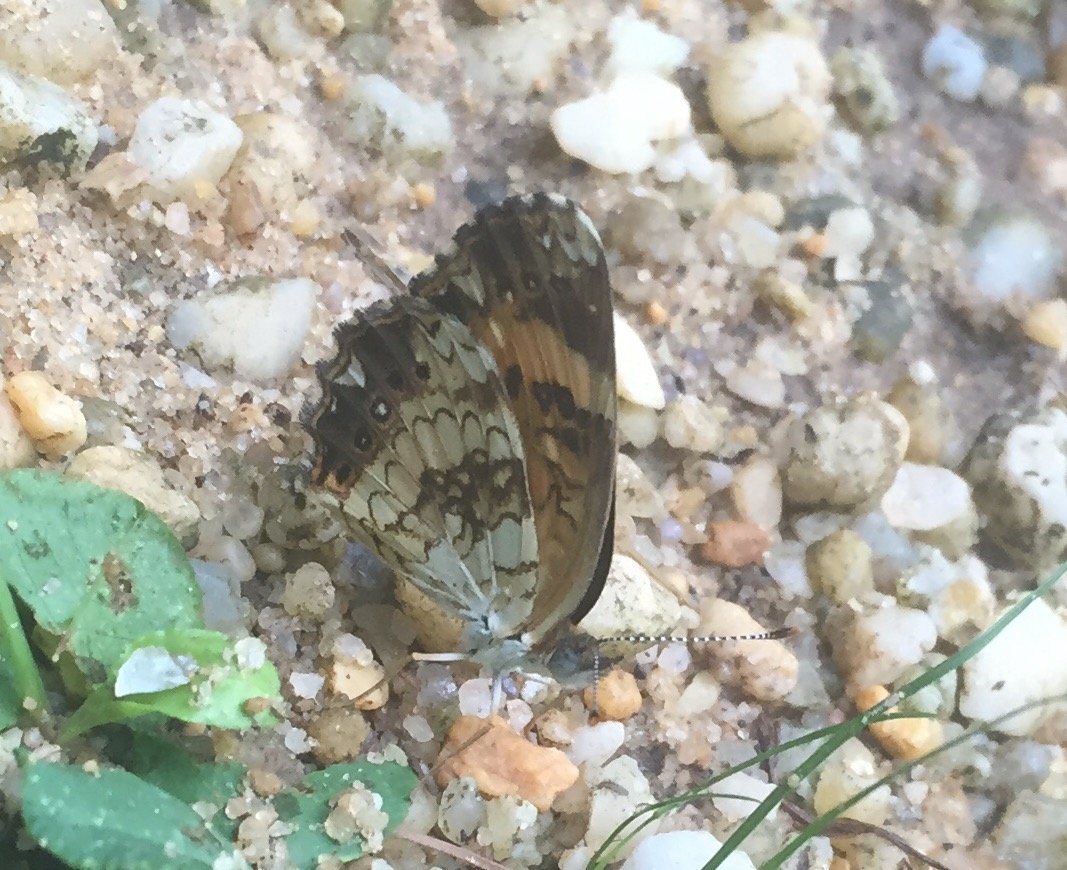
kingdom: Animalia
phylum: Arthropoda
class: Insecta
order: Lepidoptera
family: Nymphalidae
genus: Chlosyne
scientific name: Chlosyne nycteis
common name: Silvery Checkerspot
